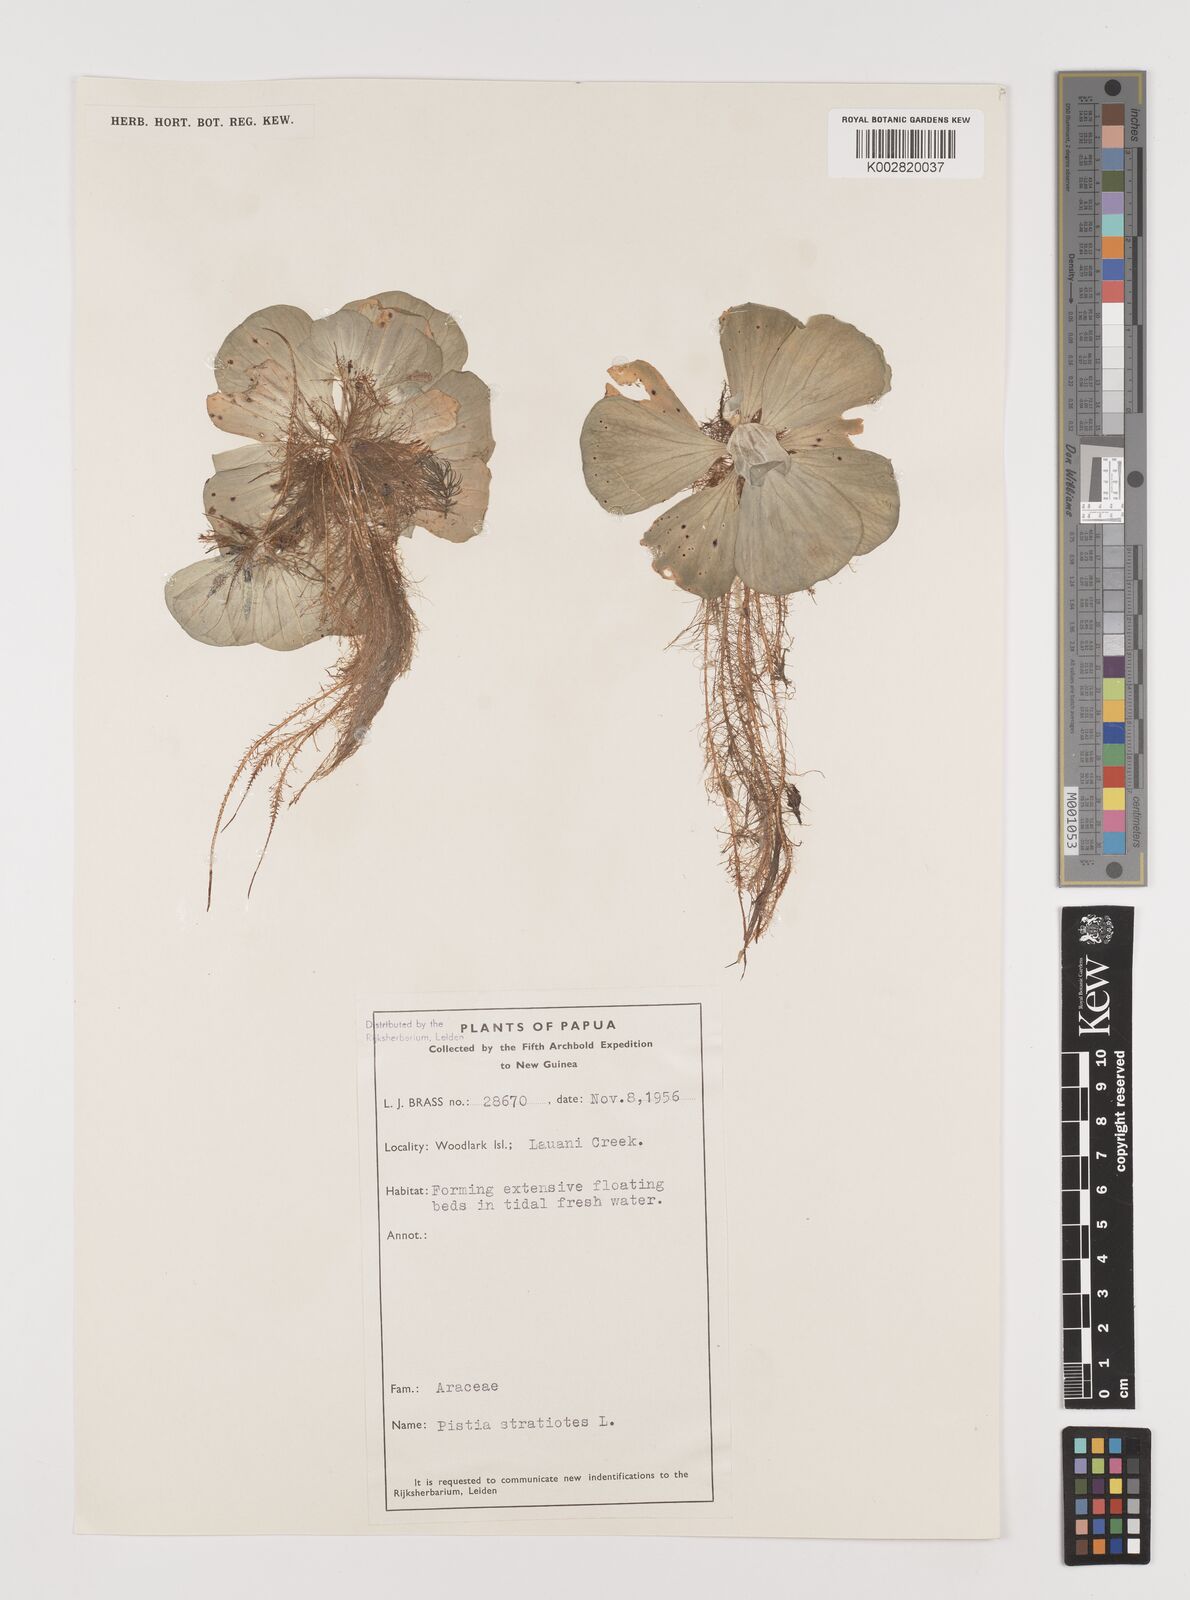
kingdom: Plantae
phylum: Tracheophyta
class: Liliopsida
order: Alismatales
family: Araceae
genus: Pistia
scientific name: Pistia stratiotes
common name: Water lettuce
